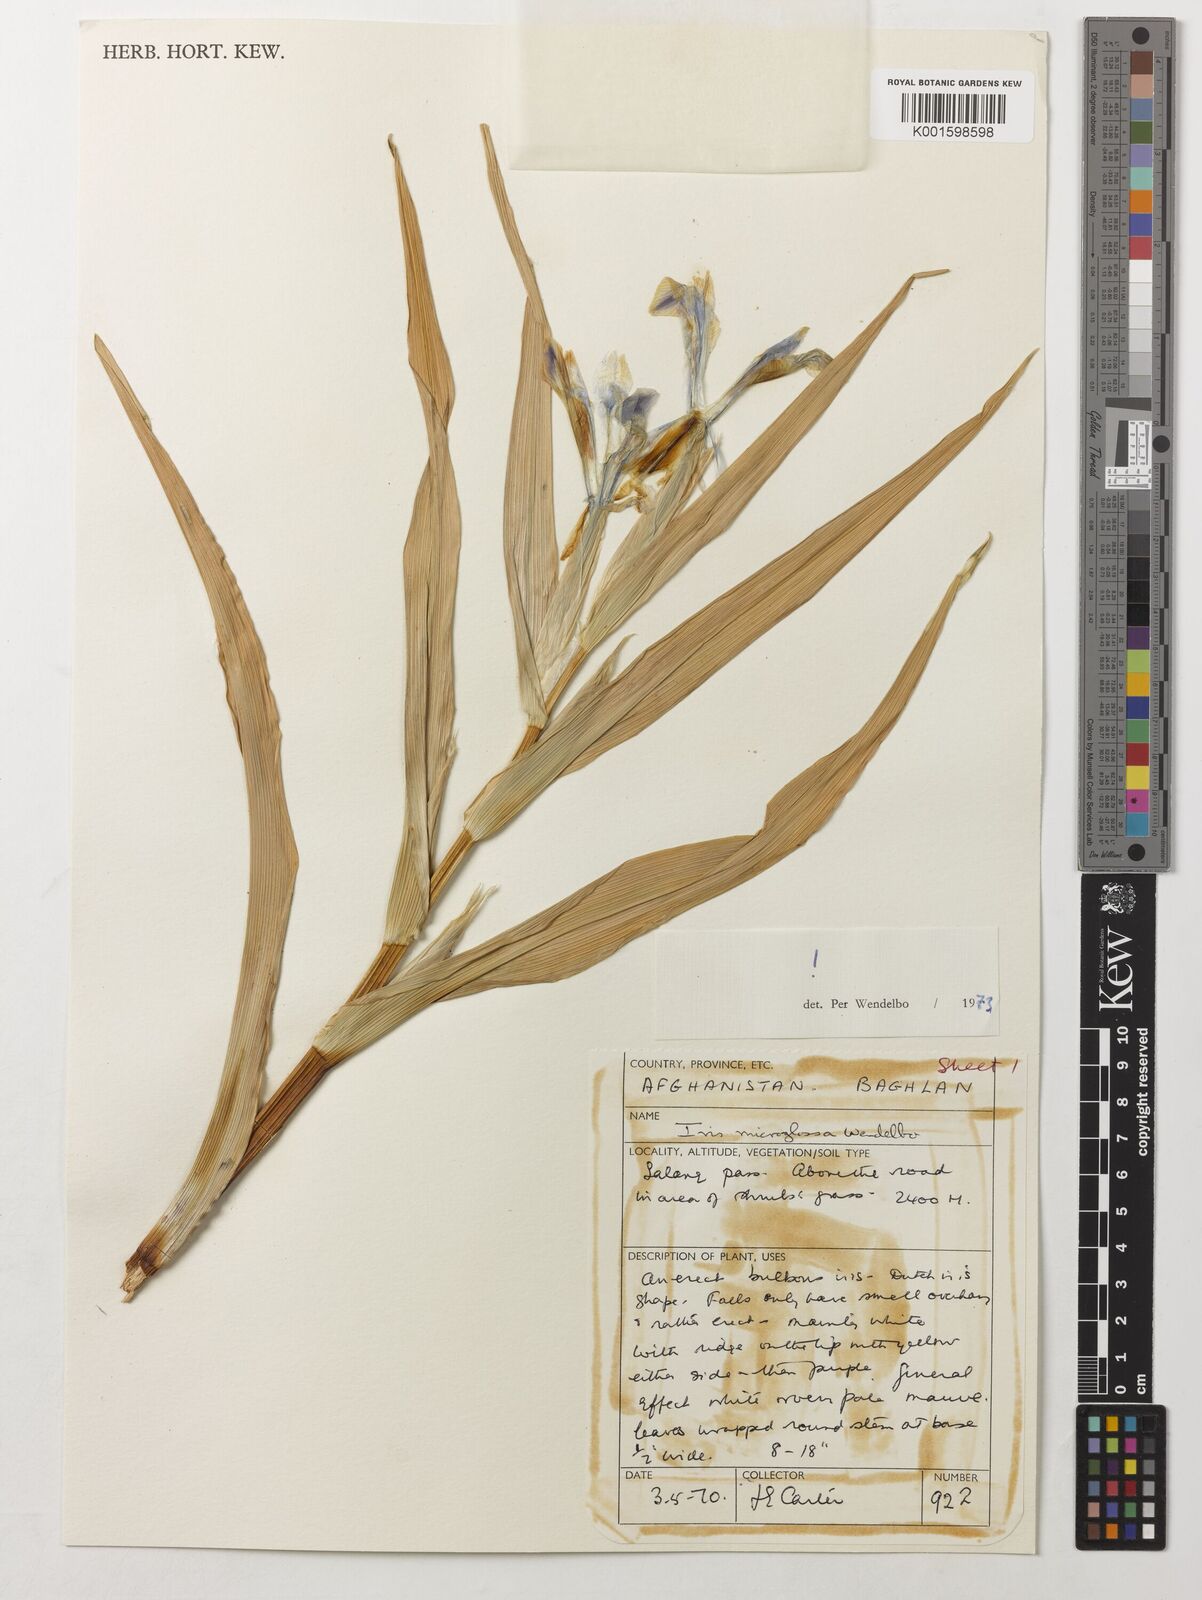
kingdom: Plantae
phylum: Tracheophyta
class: Liliopsida
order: Asparagales
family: Iridaceae
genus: Iris
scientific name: Iris microglossa
